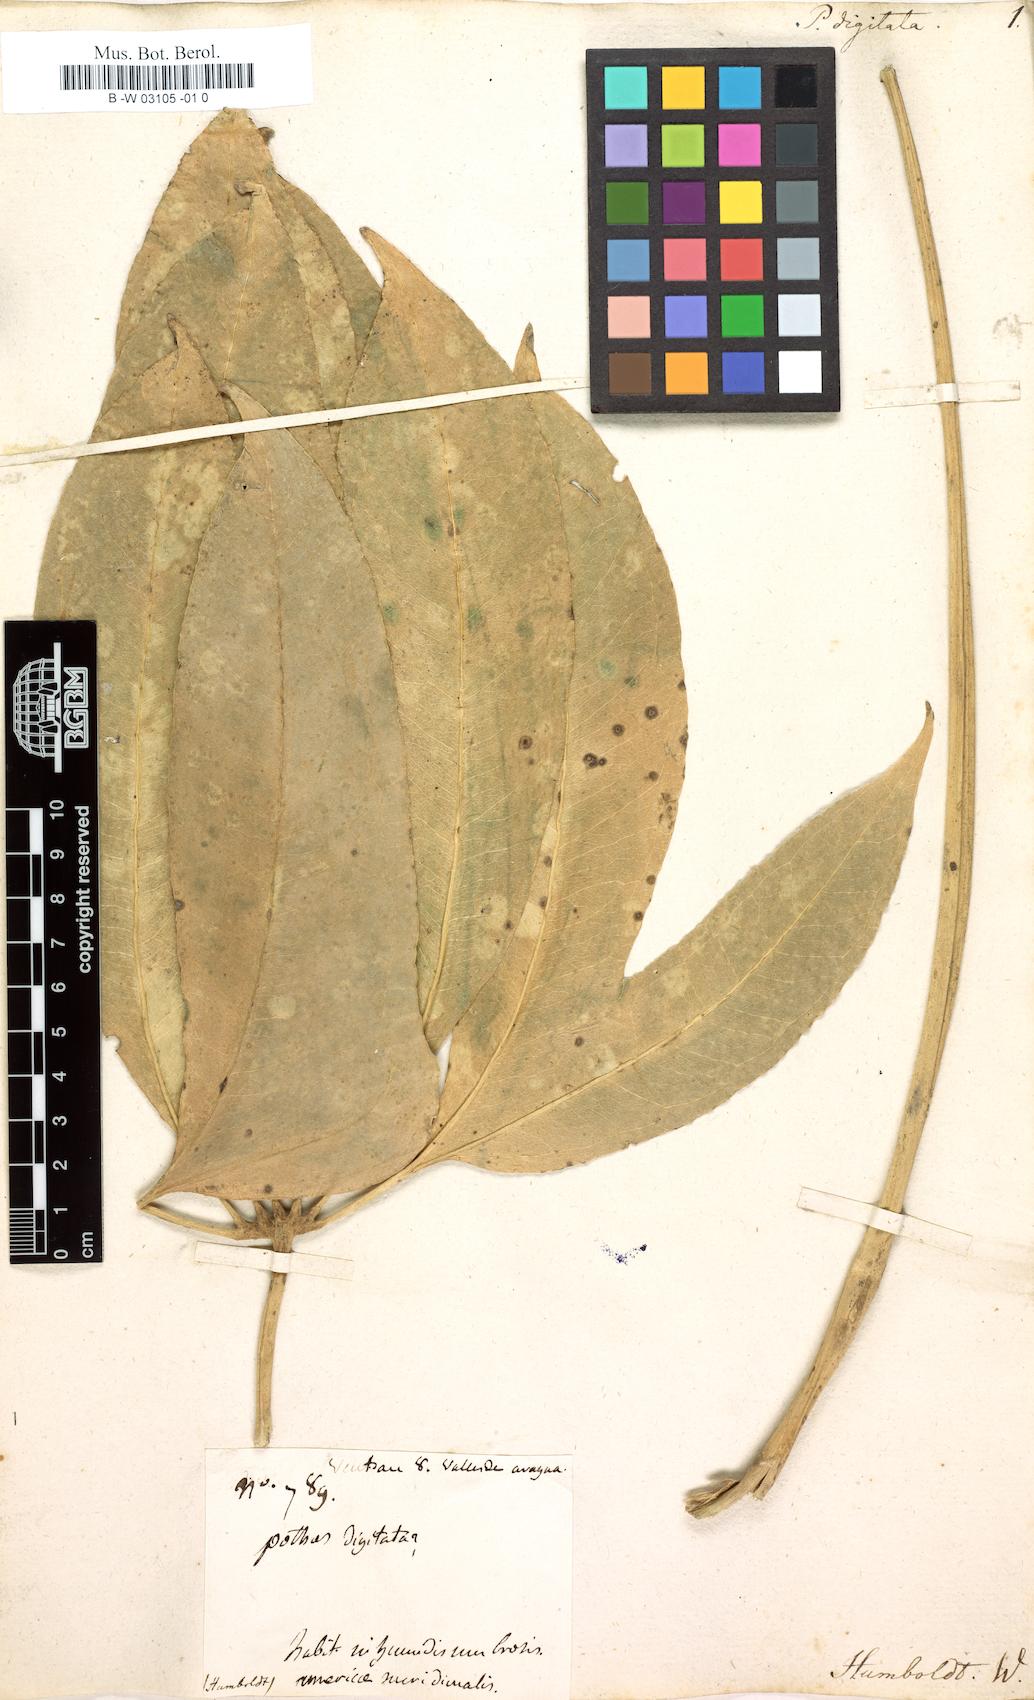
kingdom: Plantae
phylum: Tracheophyta
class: Liliopsida
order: Alismatales
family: Araceae
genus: Anthurium
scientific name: Anthurium digitatum
